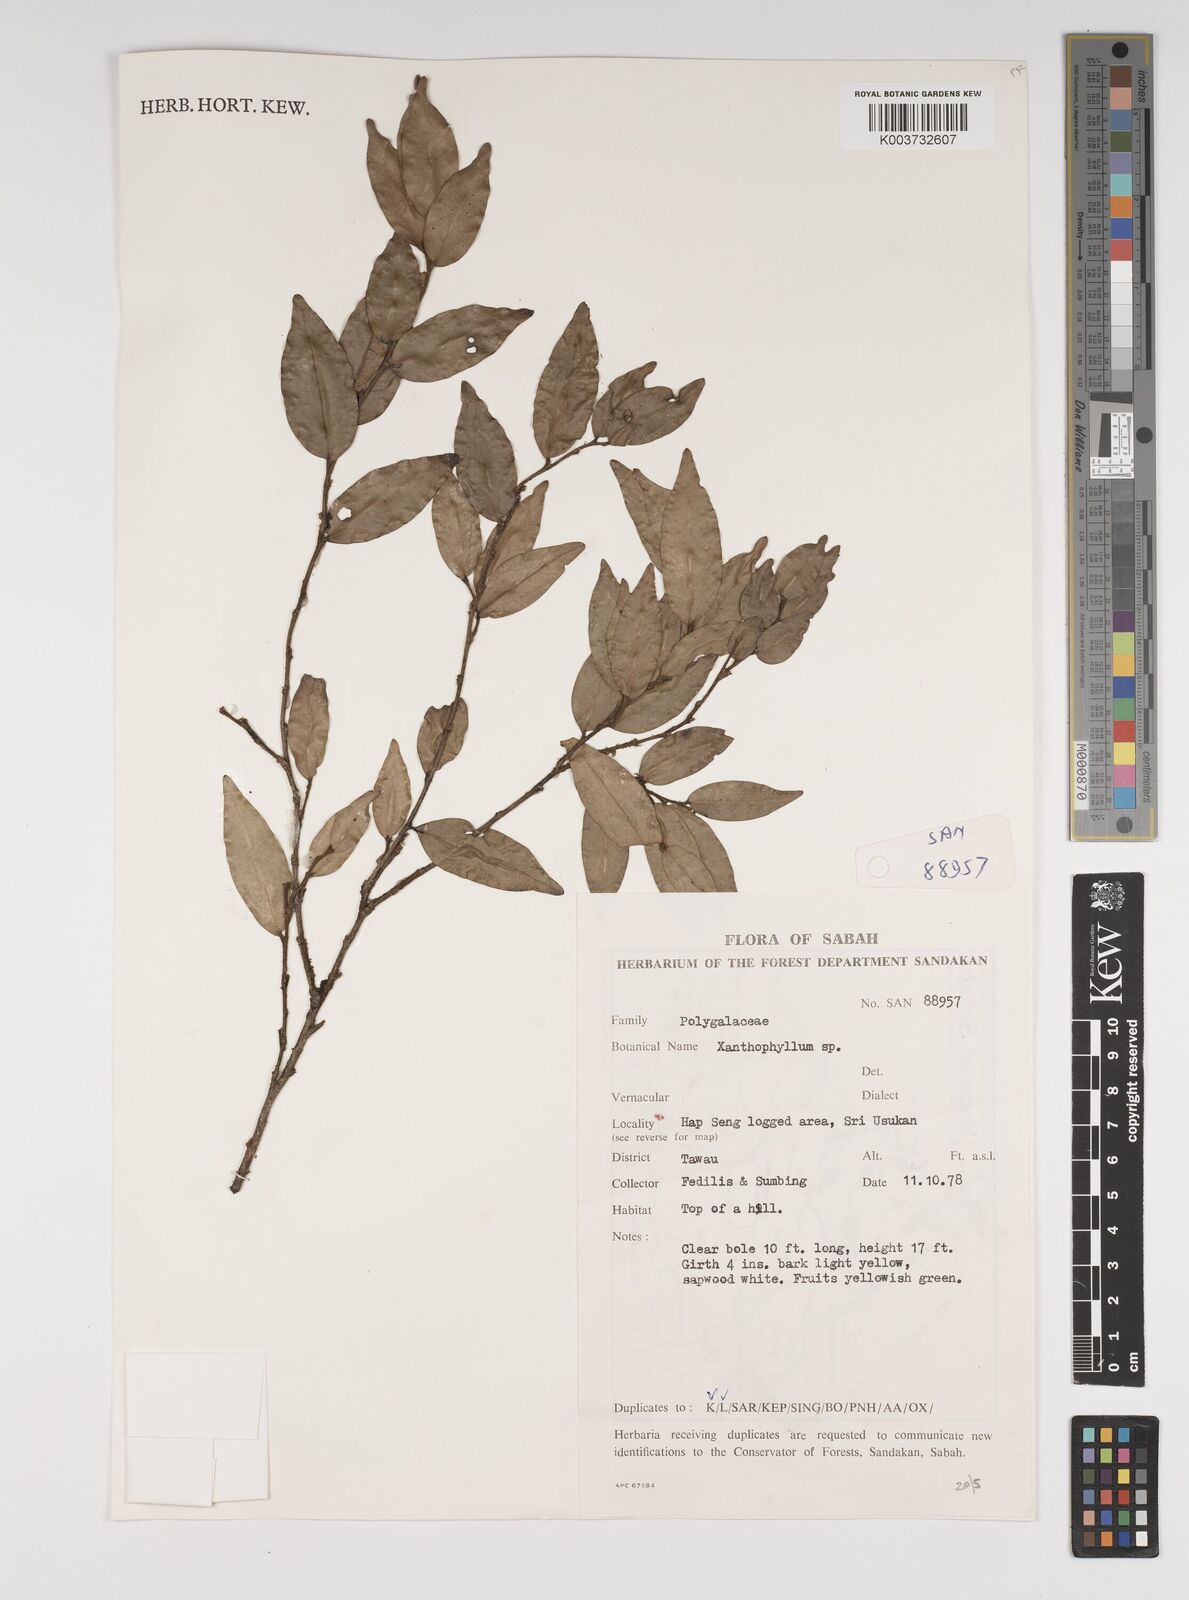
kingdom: Plantae
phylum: Tracheophyta
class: Magnoliopsida
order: Fabales
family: Polygalaceae
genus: Xanthophyllum
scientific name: Xanthophyllum
